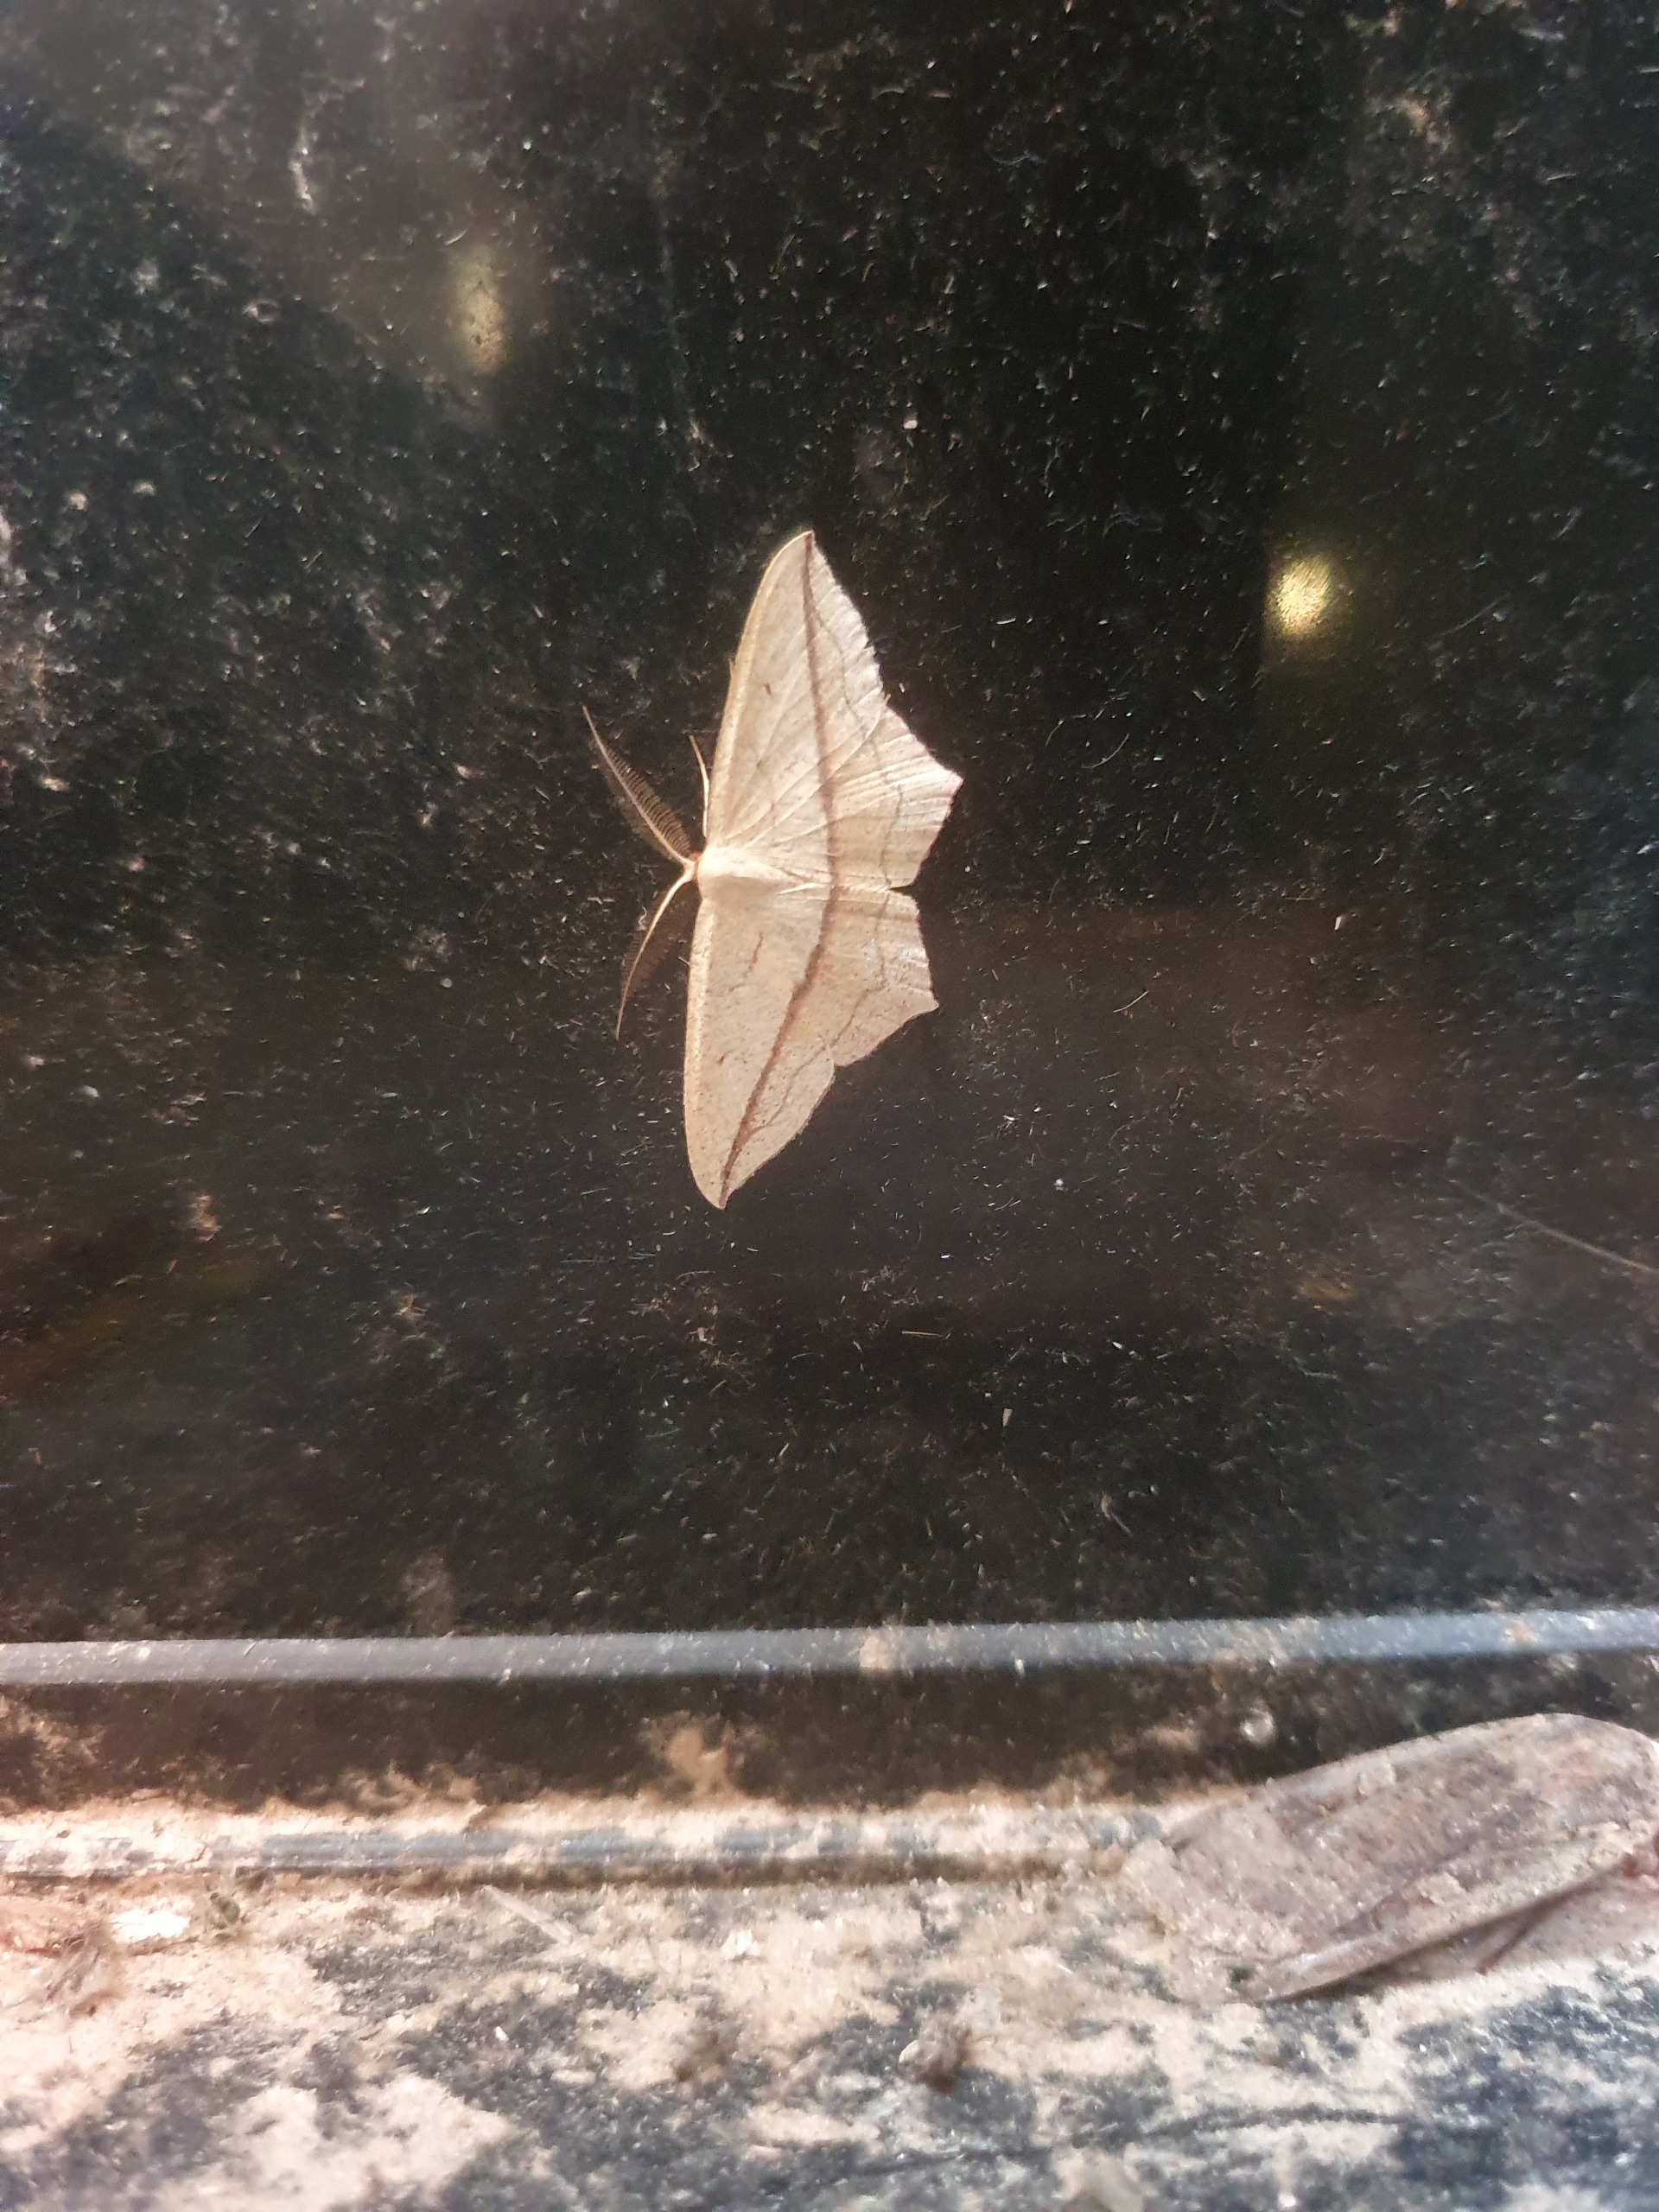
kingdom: Animalia
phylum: Arthropoda
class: Insecta
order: Lepidoptera
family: Geometridae
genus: Timandra
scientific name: Timandra comae
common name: Gul syremåler
